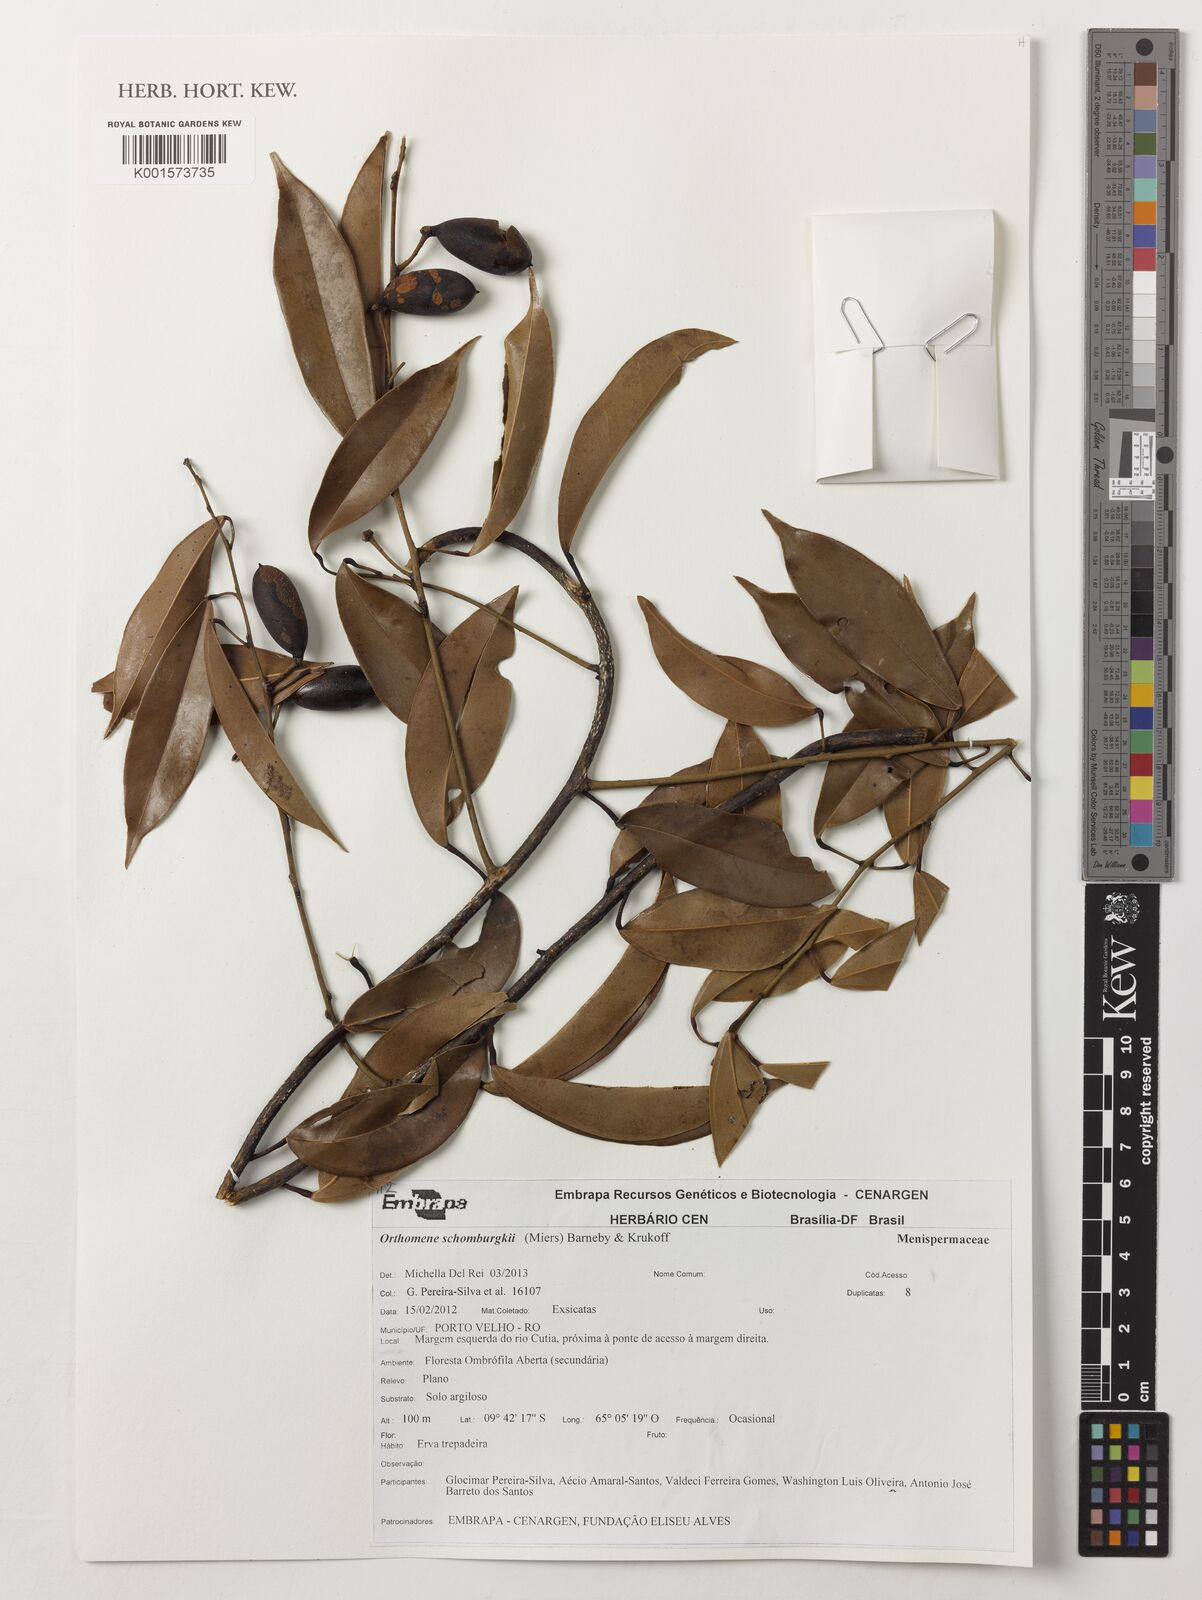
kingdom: Plantae
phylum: Tracheophyta
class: Magnoliopsida
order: Ranunculales
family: Menispermaceae
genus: Orthomene
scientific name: Orthomene schomburgkii
